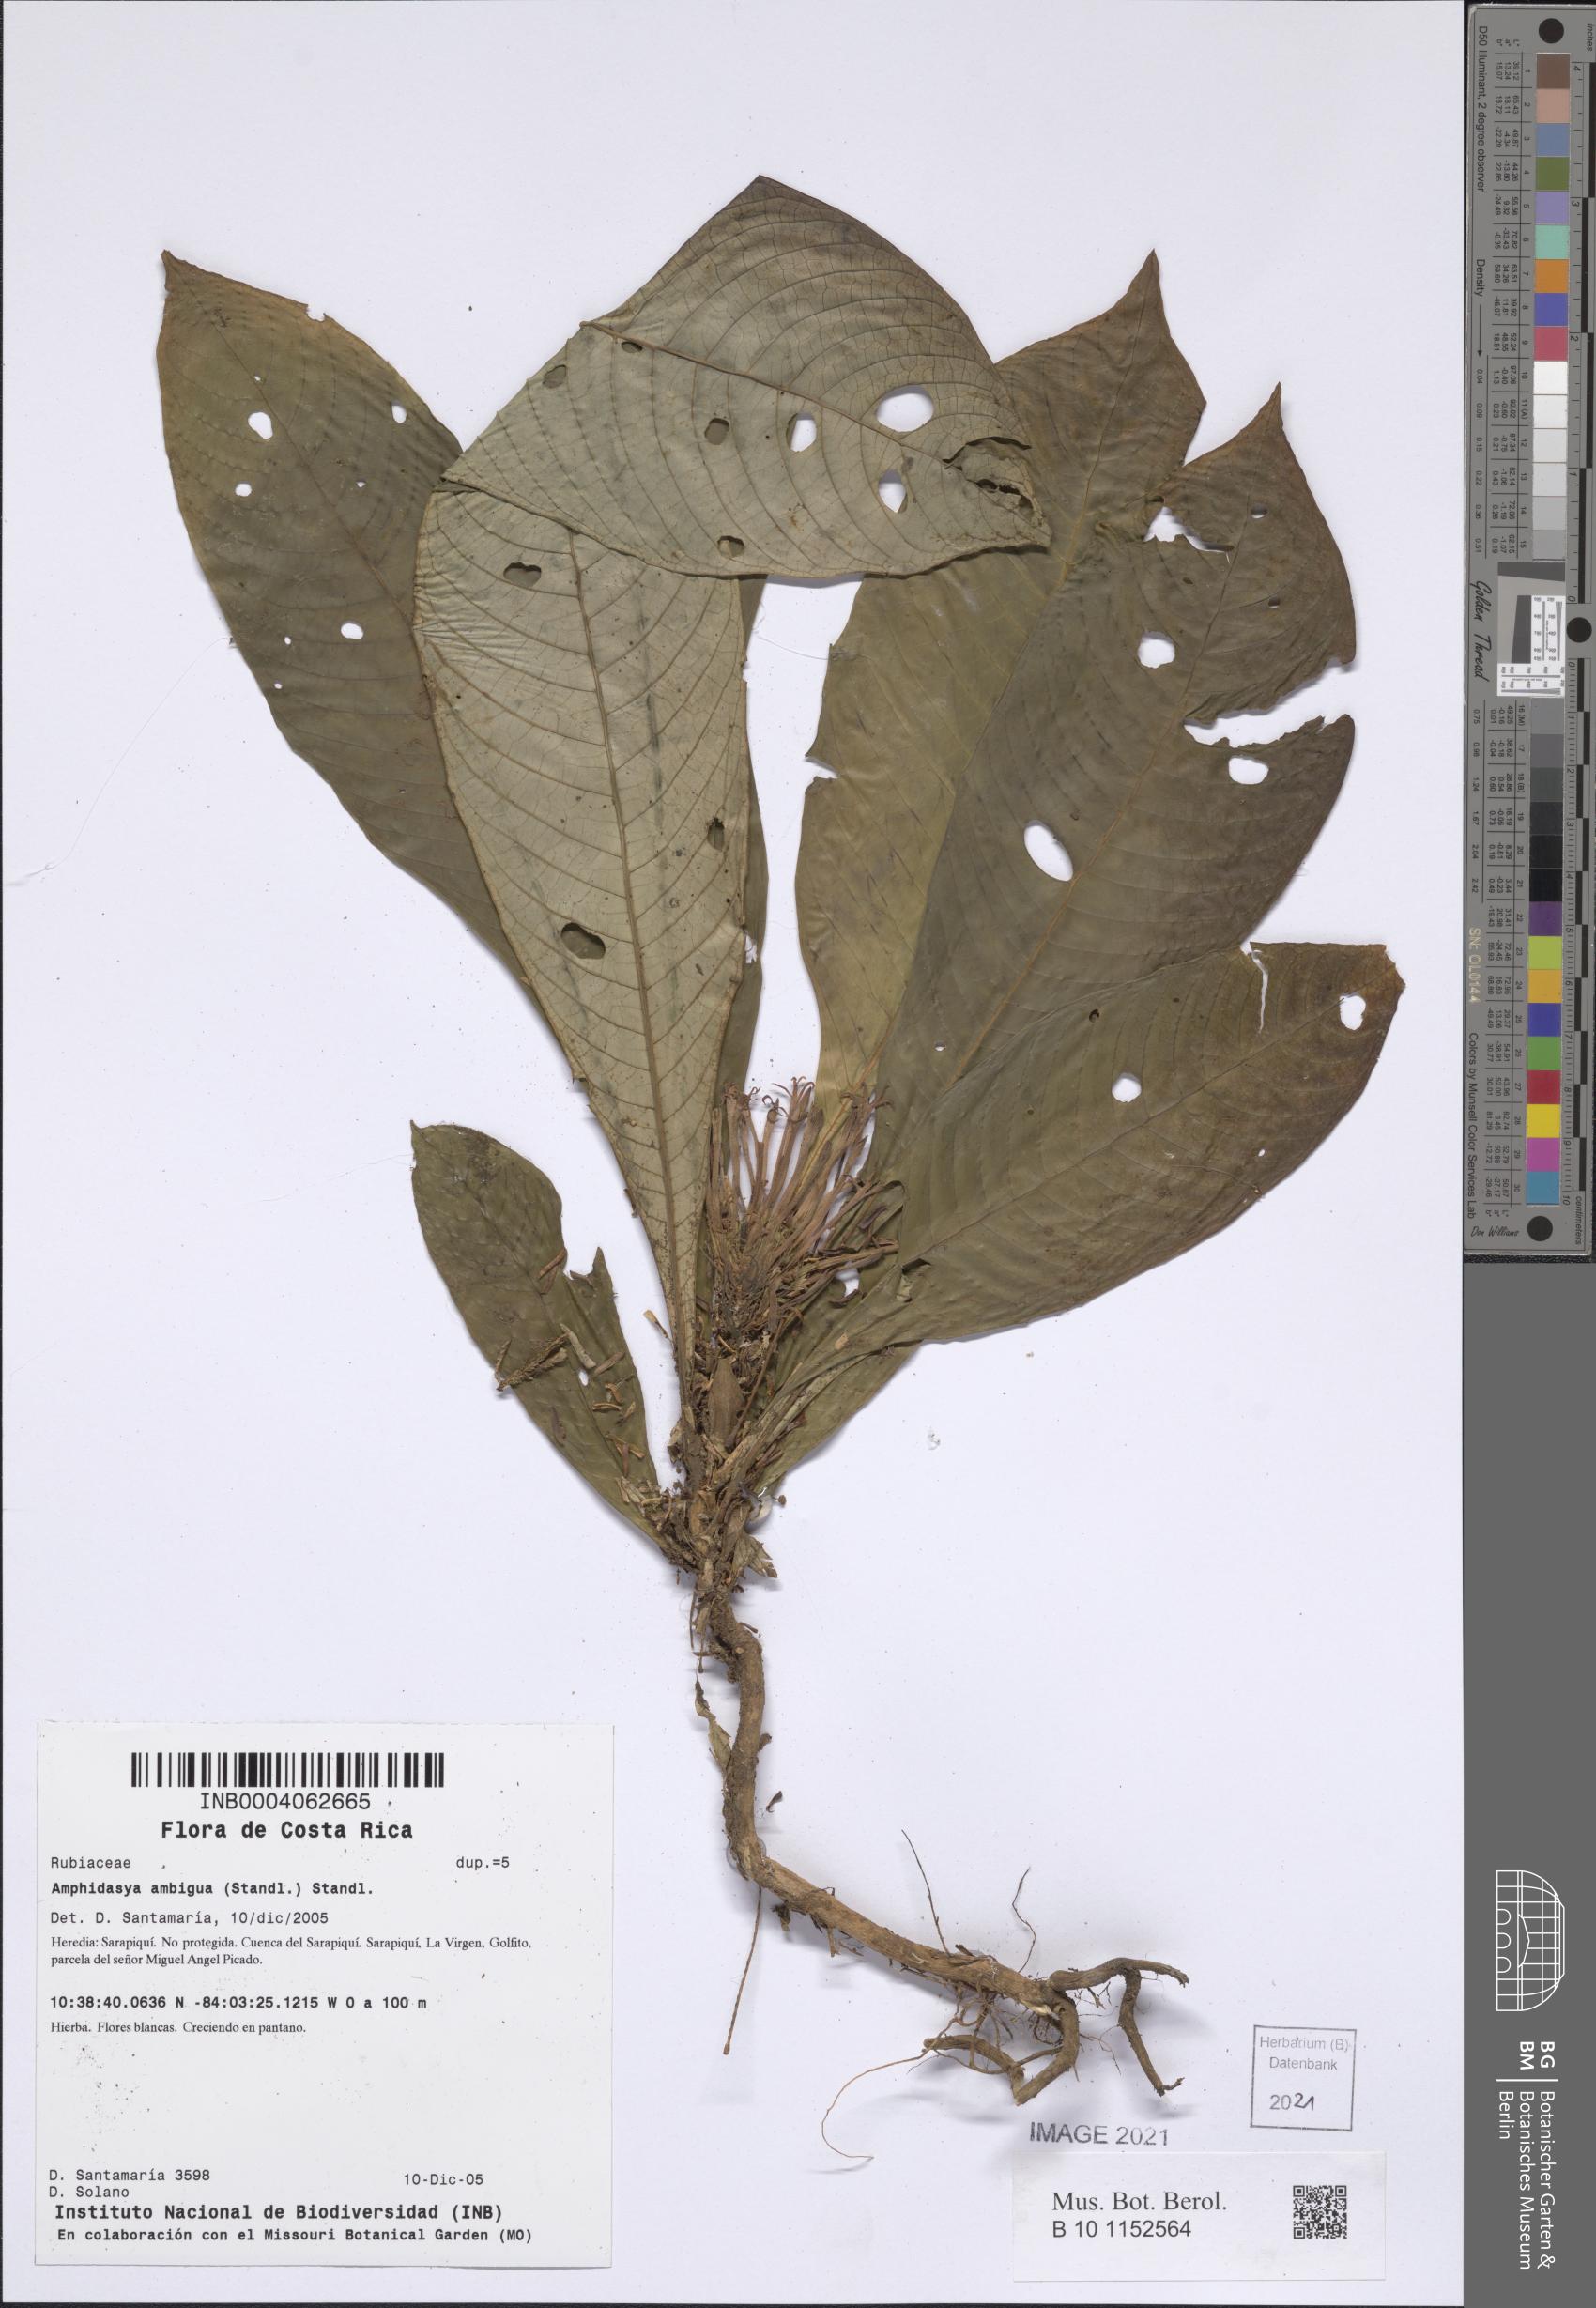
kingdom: Plantae
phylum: Tracheophyta
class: Magnoliopsida
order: Gentianales
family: Rubiaceae
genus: Amphidasya
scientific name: Amphidasya longicalycina
